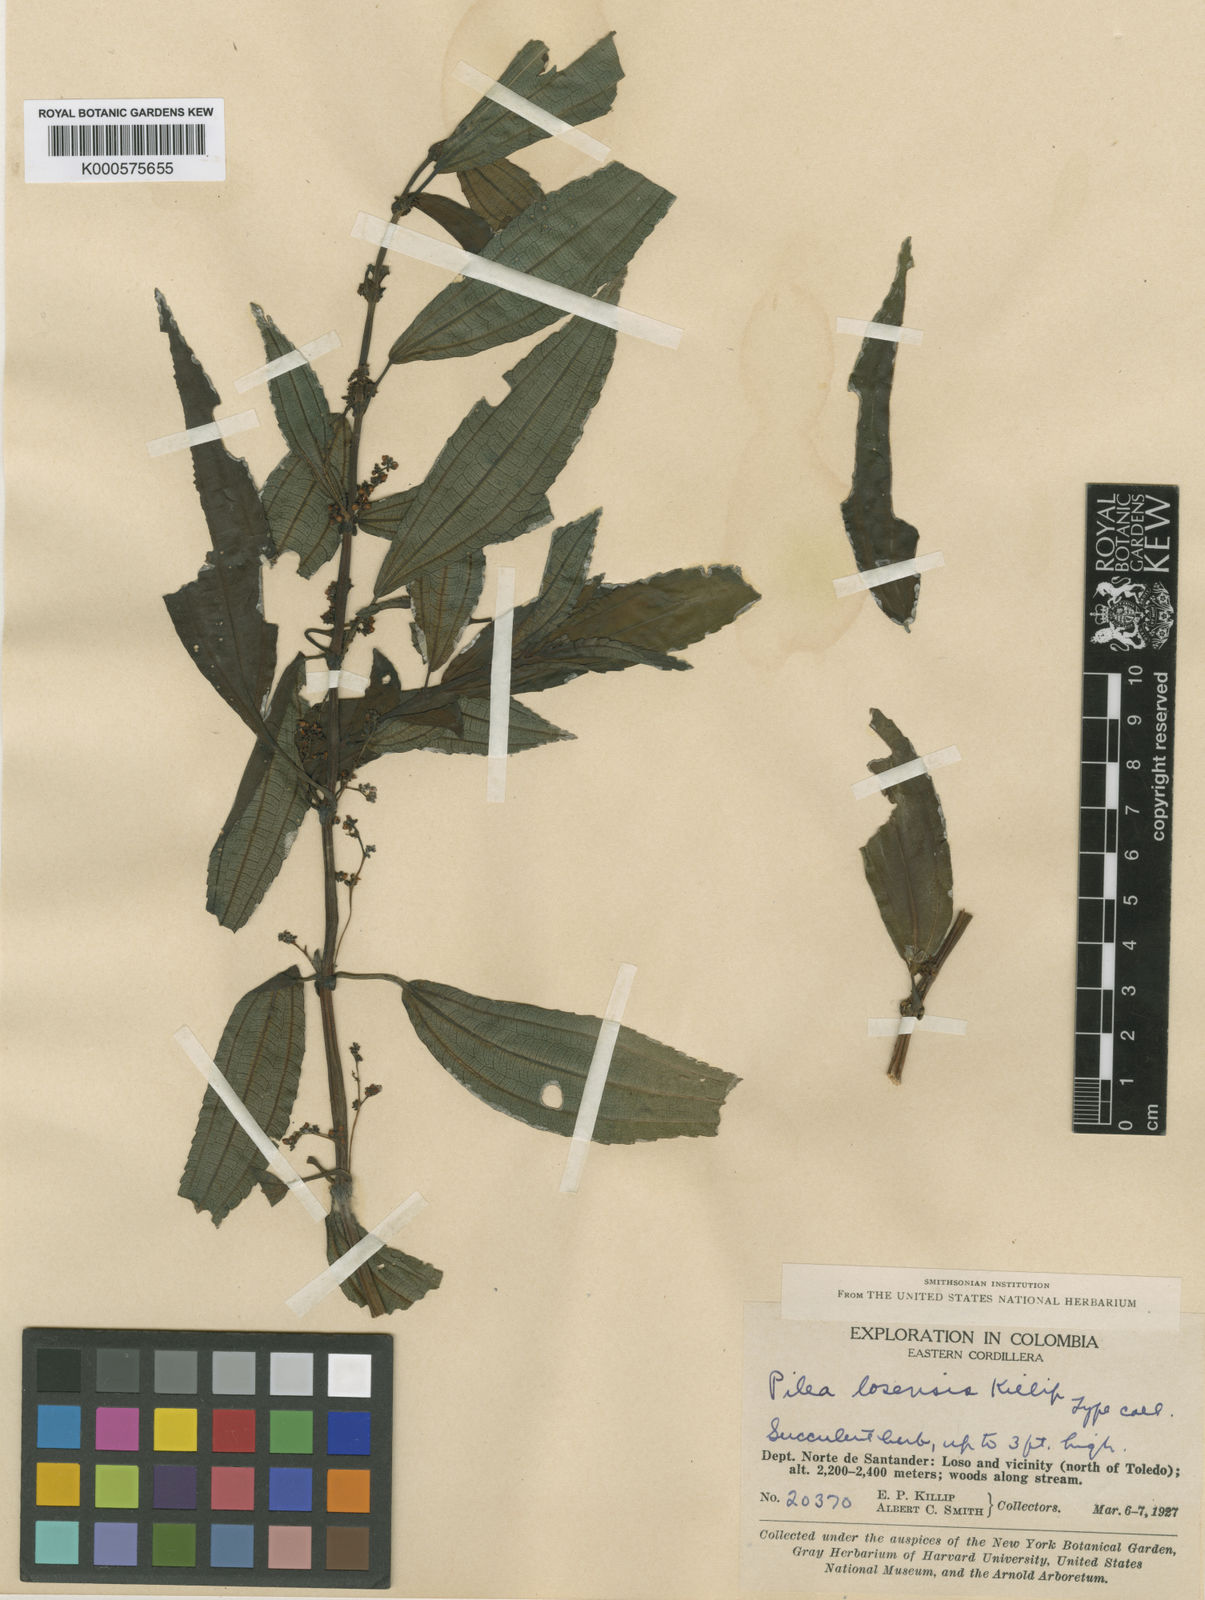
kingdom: Plantae
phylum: Tracheophyta
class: Magnoliopsida
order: Rosales
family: Urticaceae
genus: Pilea
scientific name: Pilea losensis
